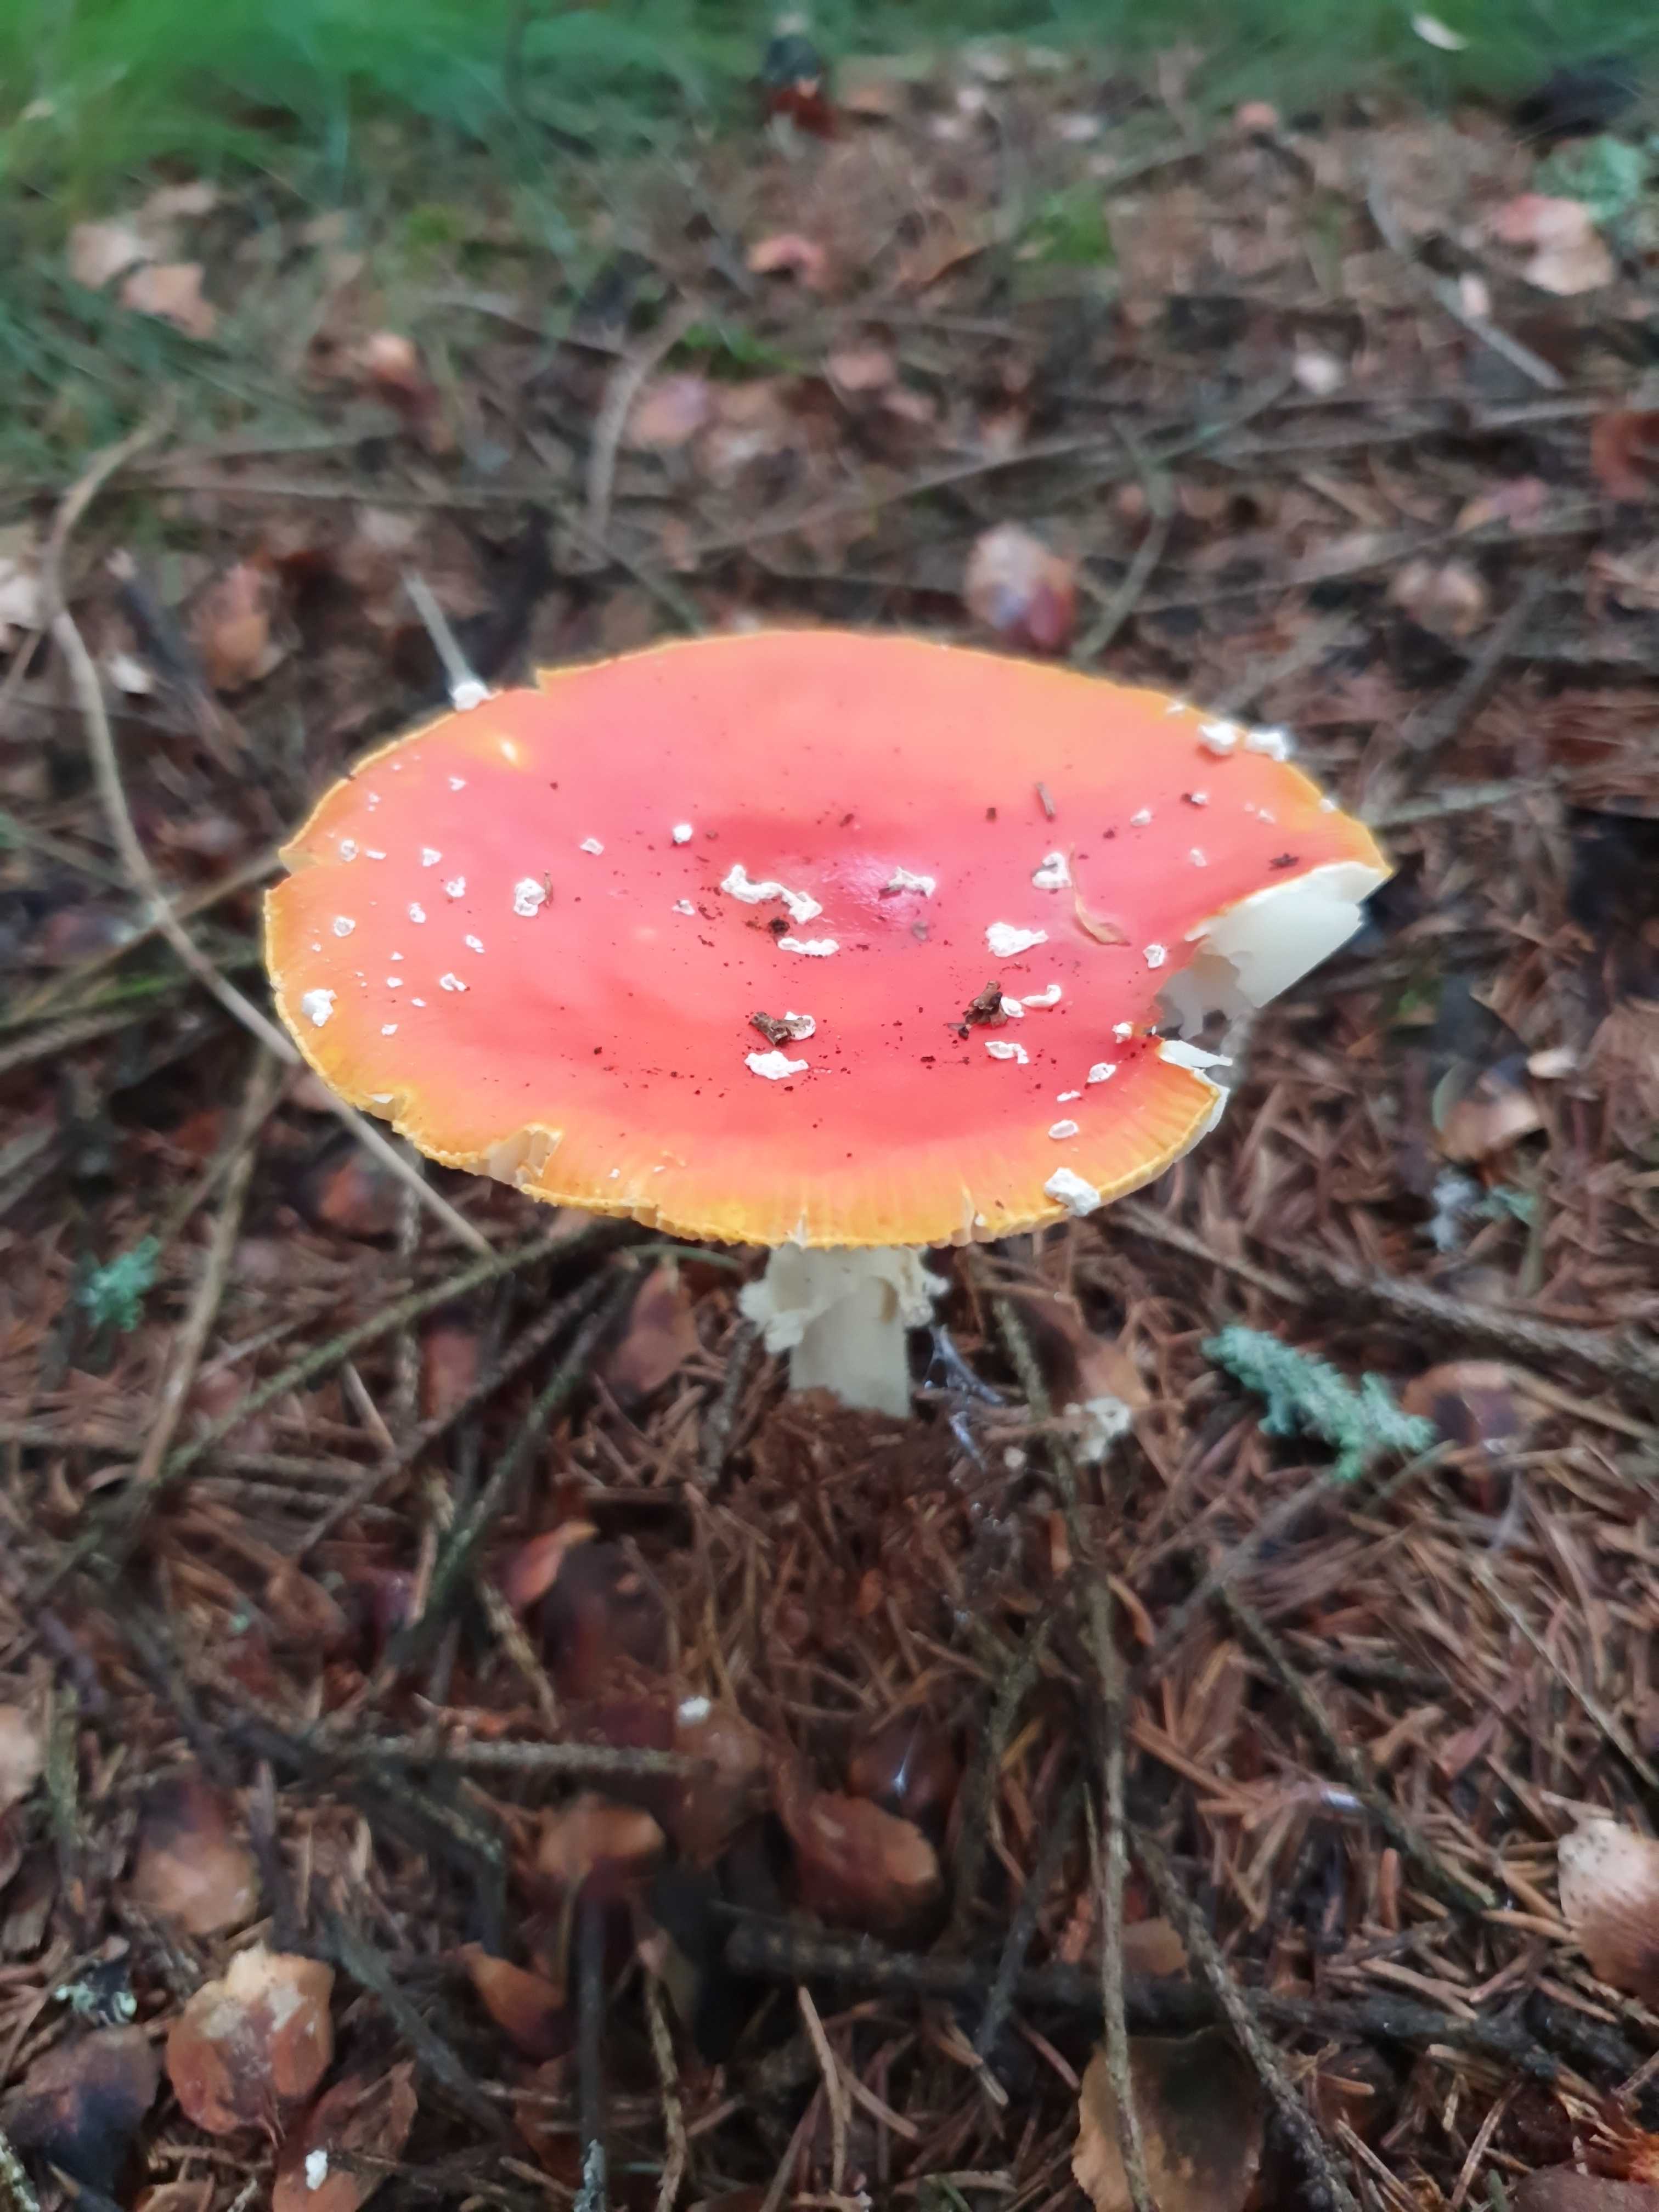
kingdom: Fungi
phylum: Basidiomycota
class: Agaricomycetes
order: Agaricales
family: Amanitaceae
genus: Amanita
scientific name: Amanita muscaria
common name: rød fluesvamp
